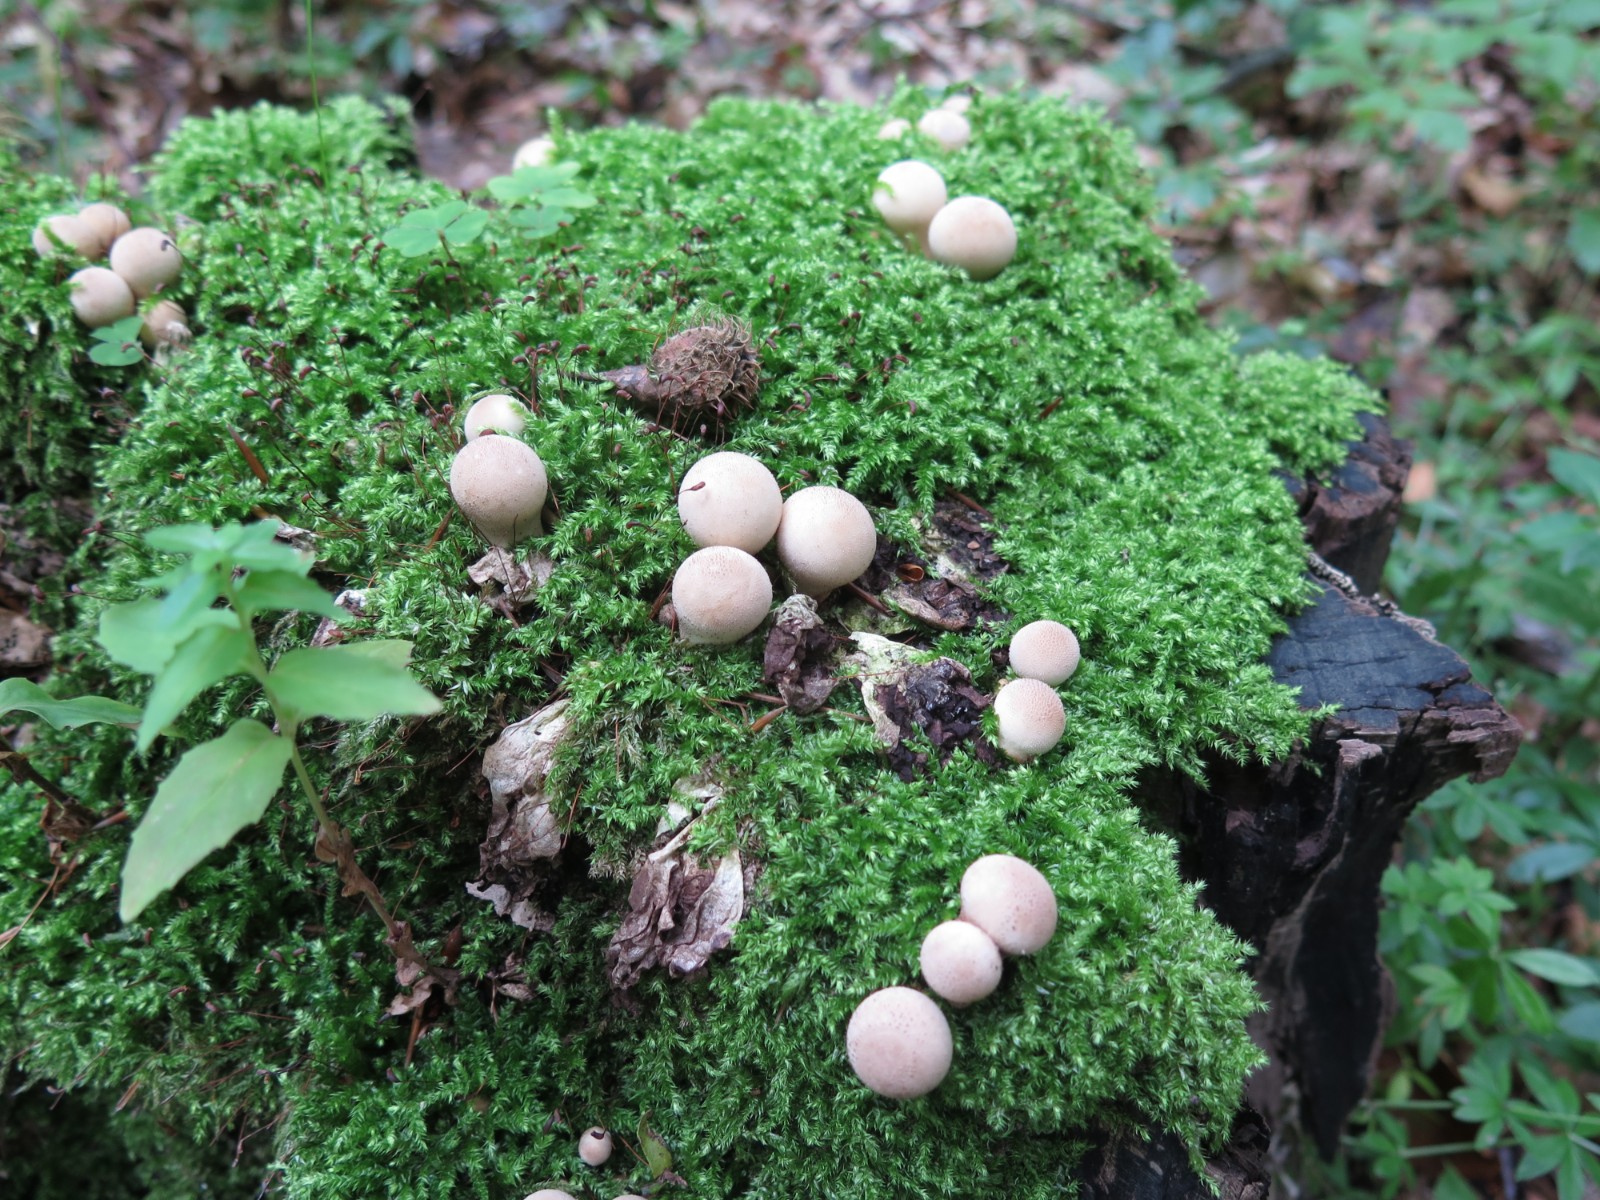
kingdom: Fungi
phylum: Basidiomycota
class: Agaricomycetes
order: Agaricales
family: Lycoperdaceae
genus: Apioperdon
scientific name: Apioperdon pyriforme
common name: pære-støvbold
